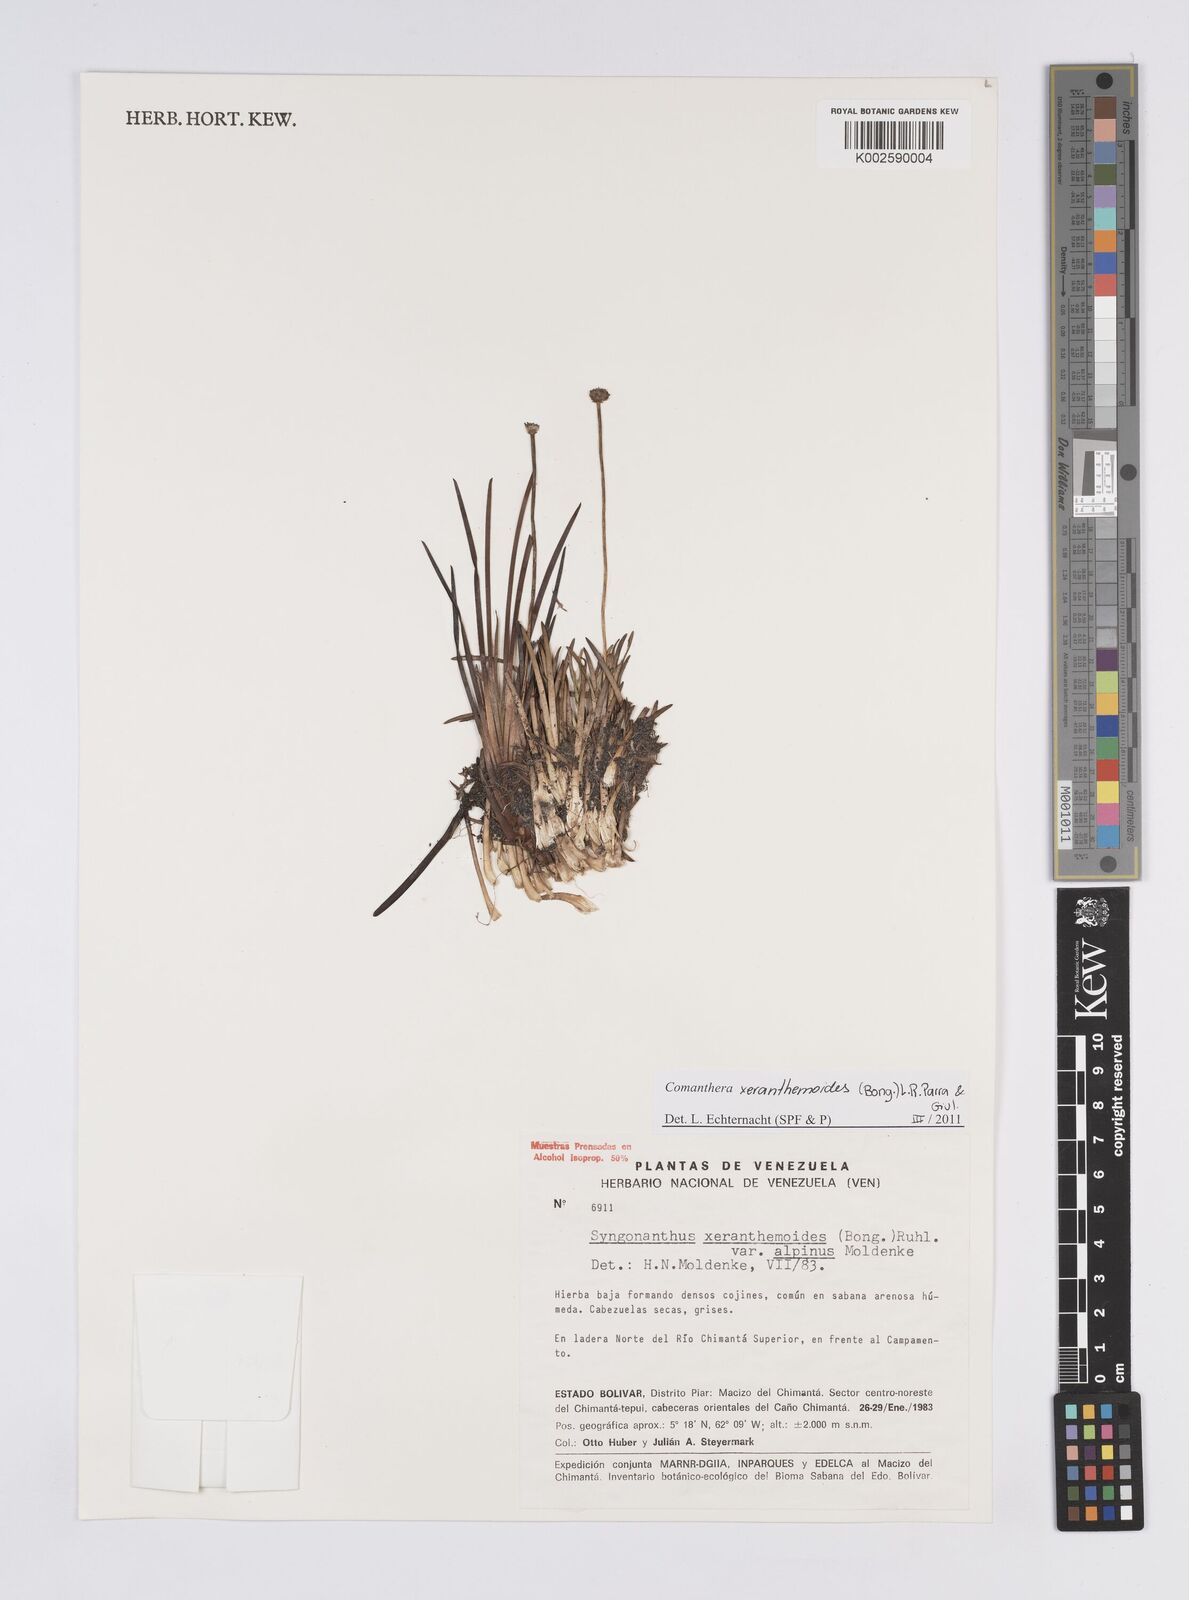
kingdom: Plantae
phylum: Tracheophyta
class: Liliopsida
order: Poales
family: Eriocaulaceae
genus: Comanthera
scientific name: Comanthera xeranthemoides
